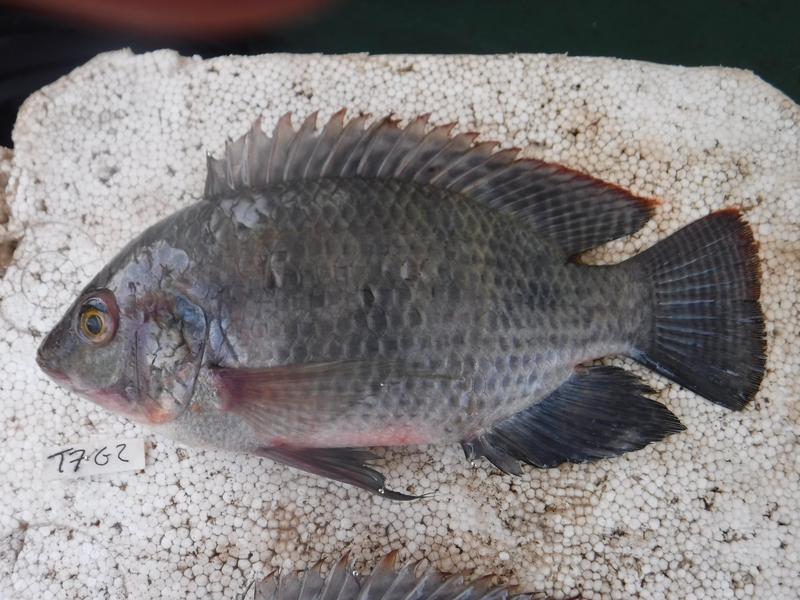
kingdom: Animalia
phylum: Chordata
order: Perciformes
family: Cichlidae
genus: Oreochromis
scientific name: Oreochromis urolepis
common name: Wami tilapia
